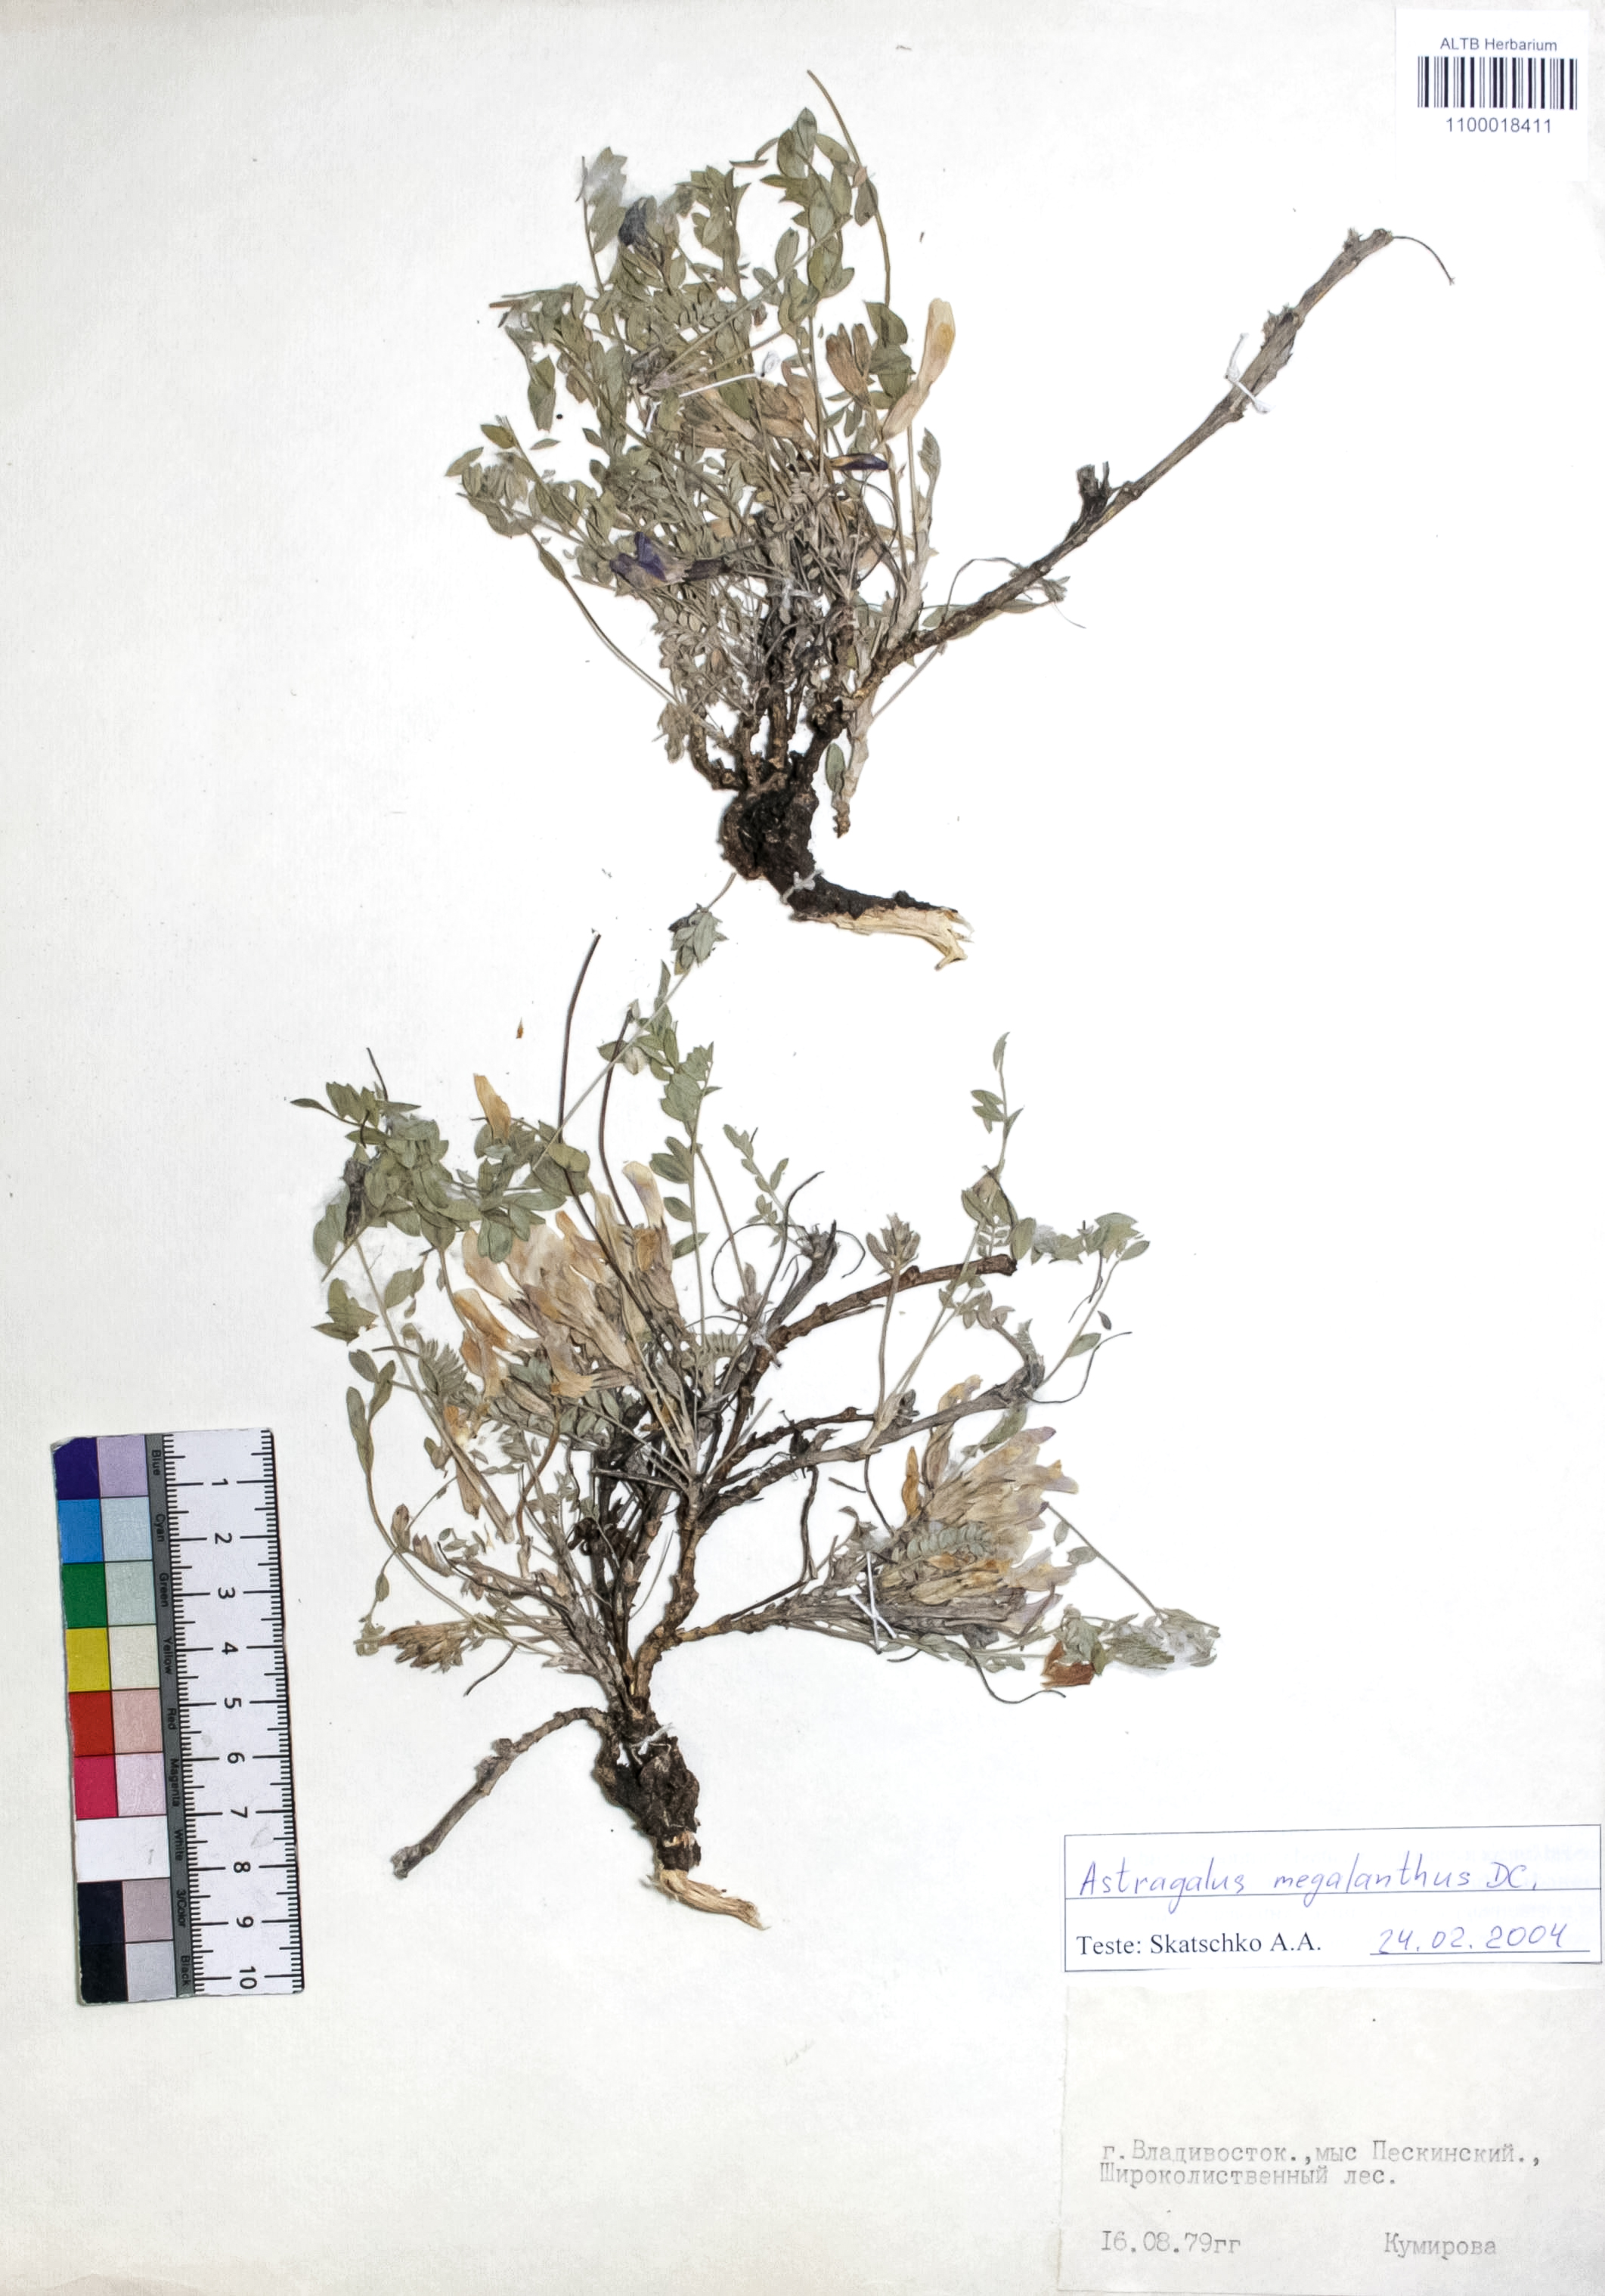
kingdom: Plantae
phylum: Tracheophyta
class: Magnoliopsida
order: Fabales
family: Fabaceae
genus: Astragalus
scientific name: Astragalus leptostachys
